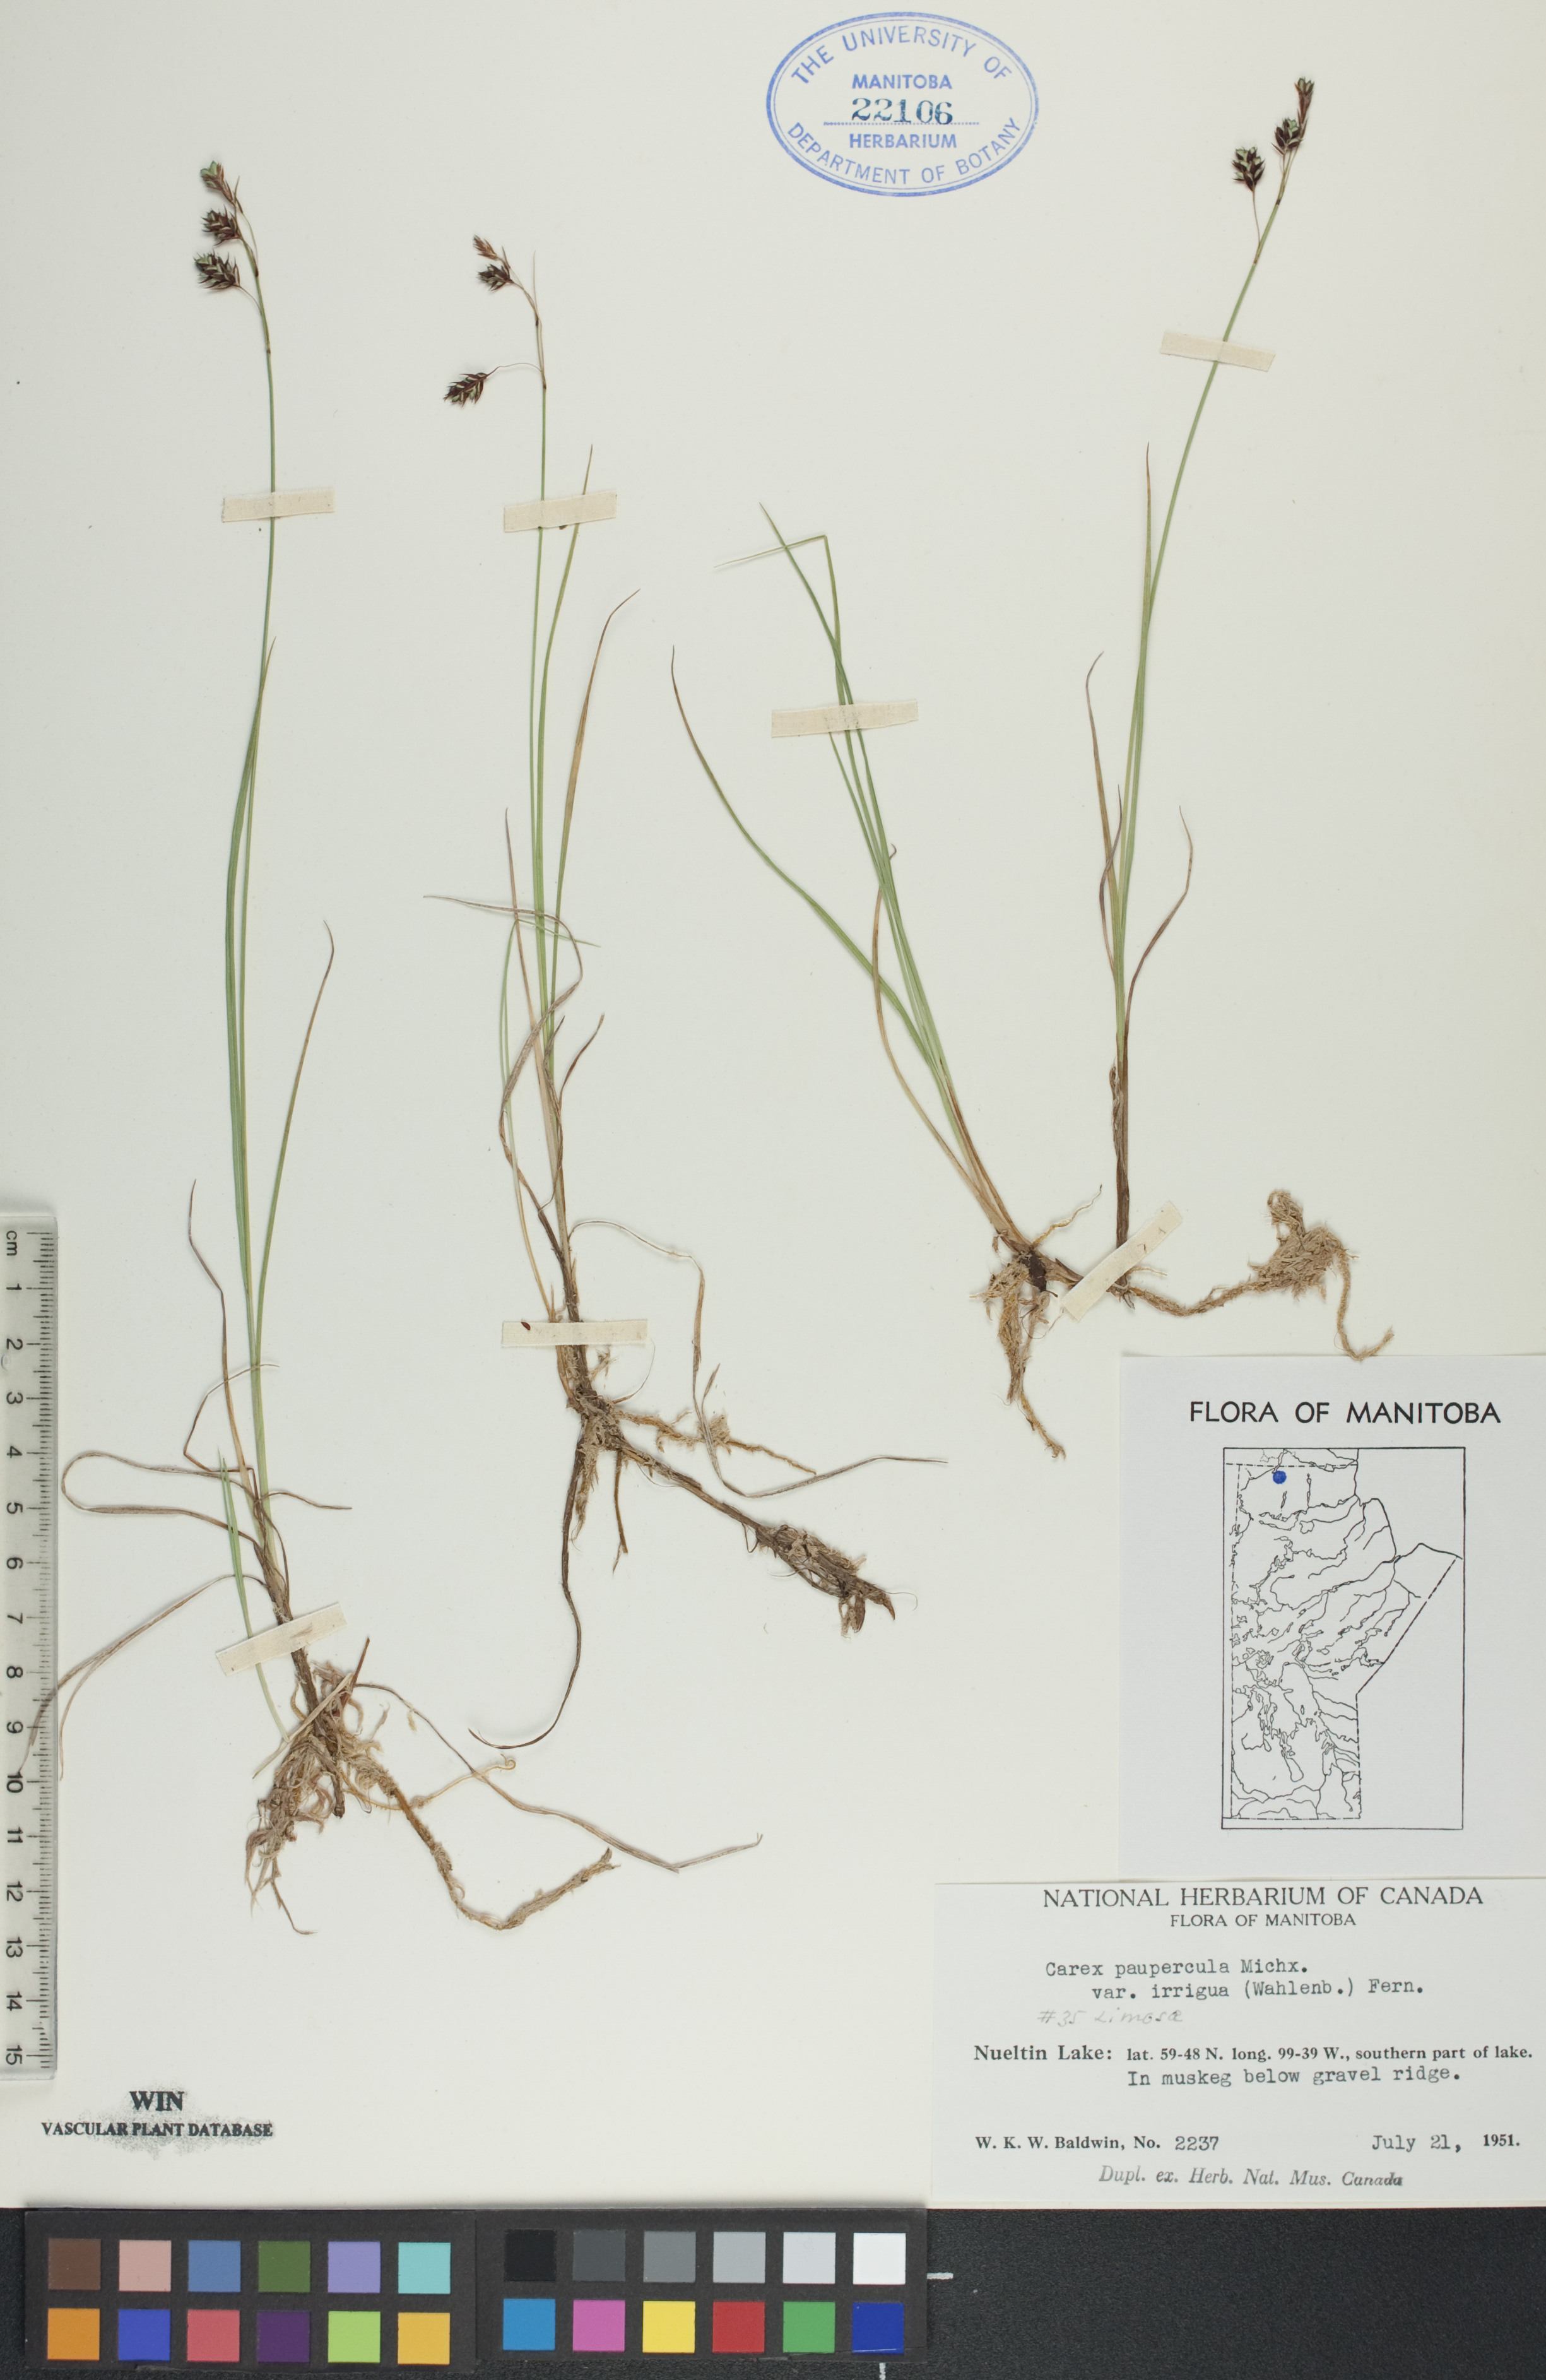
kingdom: Plantae
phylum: Tracheophyta
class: Liliopsida
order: Poales
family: Cyperaceae
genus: Carex
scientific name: Carex magellanica
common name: Bog sedge
